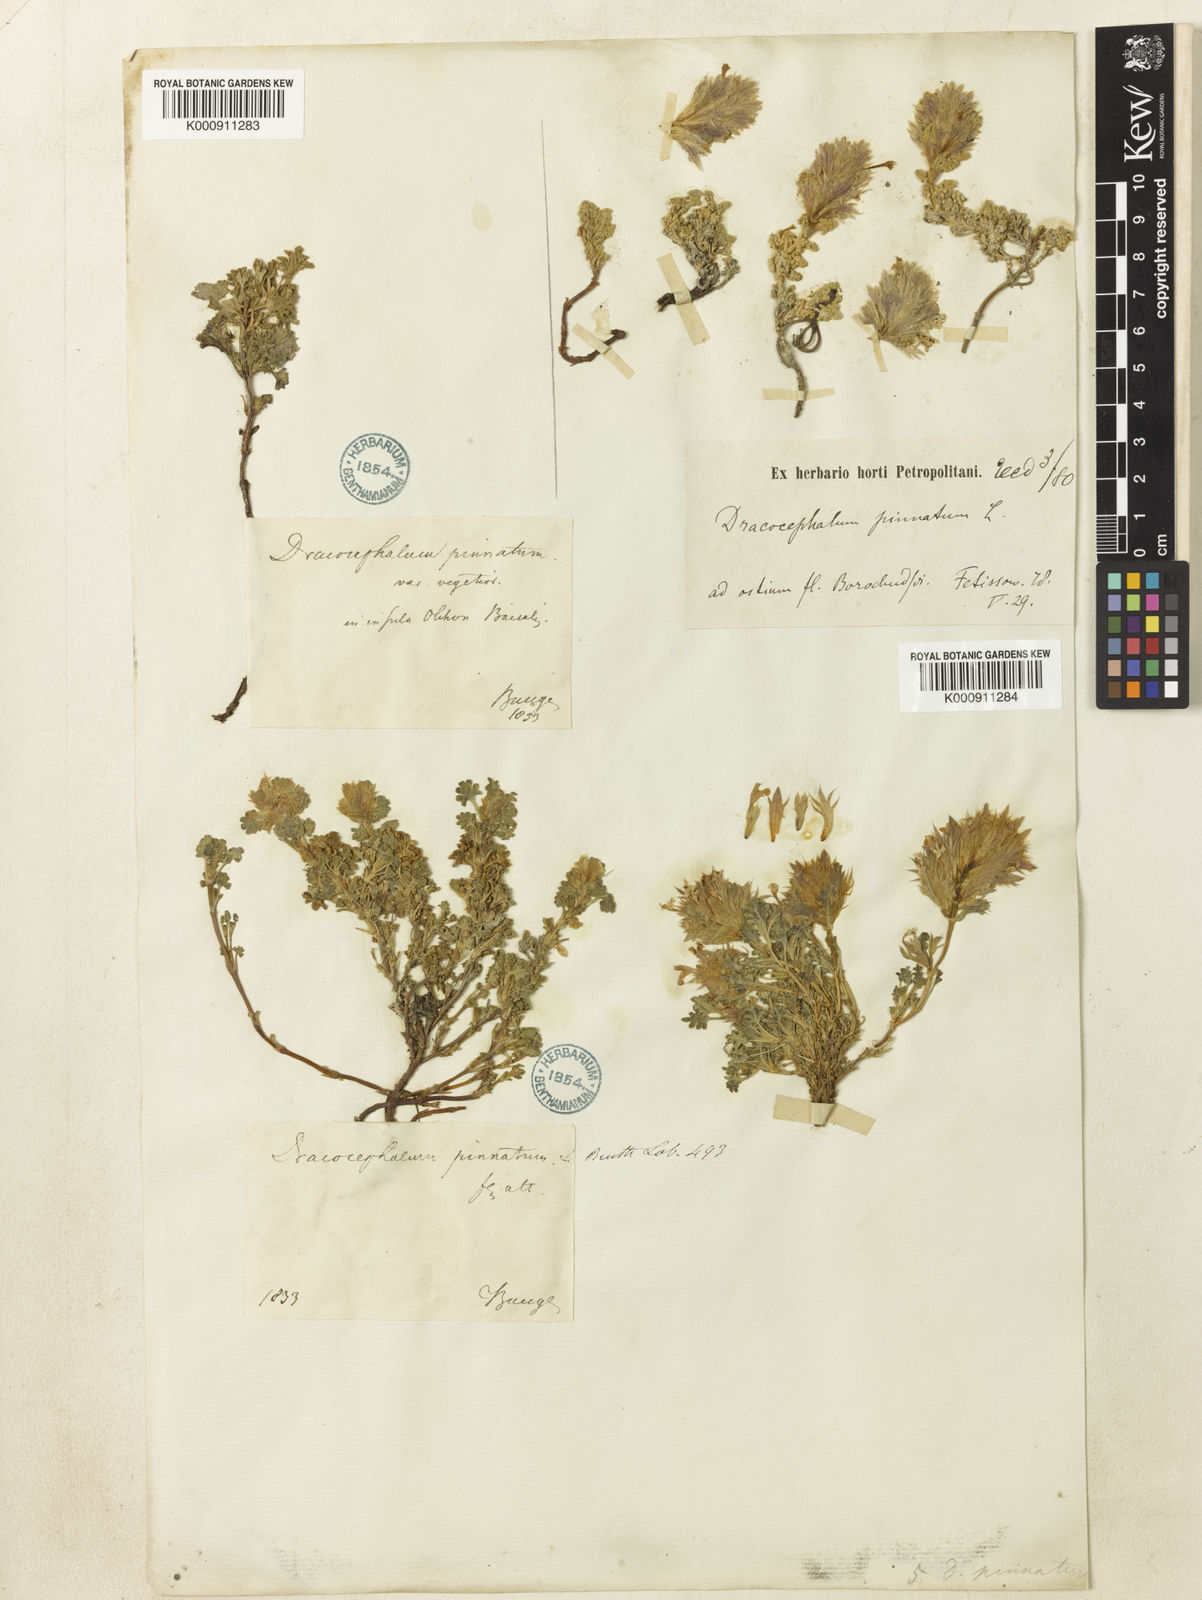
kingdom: Plantae
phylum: Tracheophyta
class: Magnoliopsida
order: Lamiales
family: Lamiaceae
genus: Dracocephalum
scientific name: Dracocephalum pinnatum
